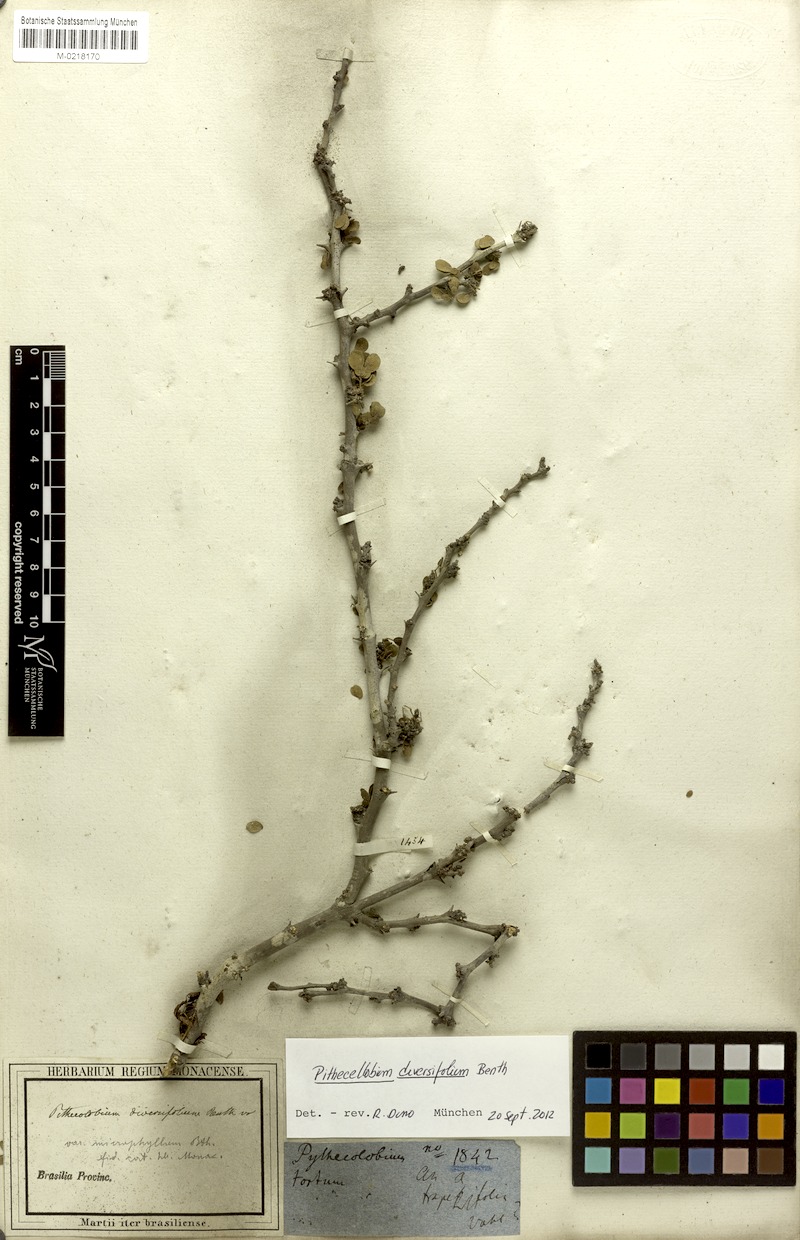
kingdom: Plantae
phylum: Tracheophyta
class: Magnoliopsida
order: Fabales
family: Fabaceae
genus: Pithecellobium
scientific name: Pithecellobium diversifolium
